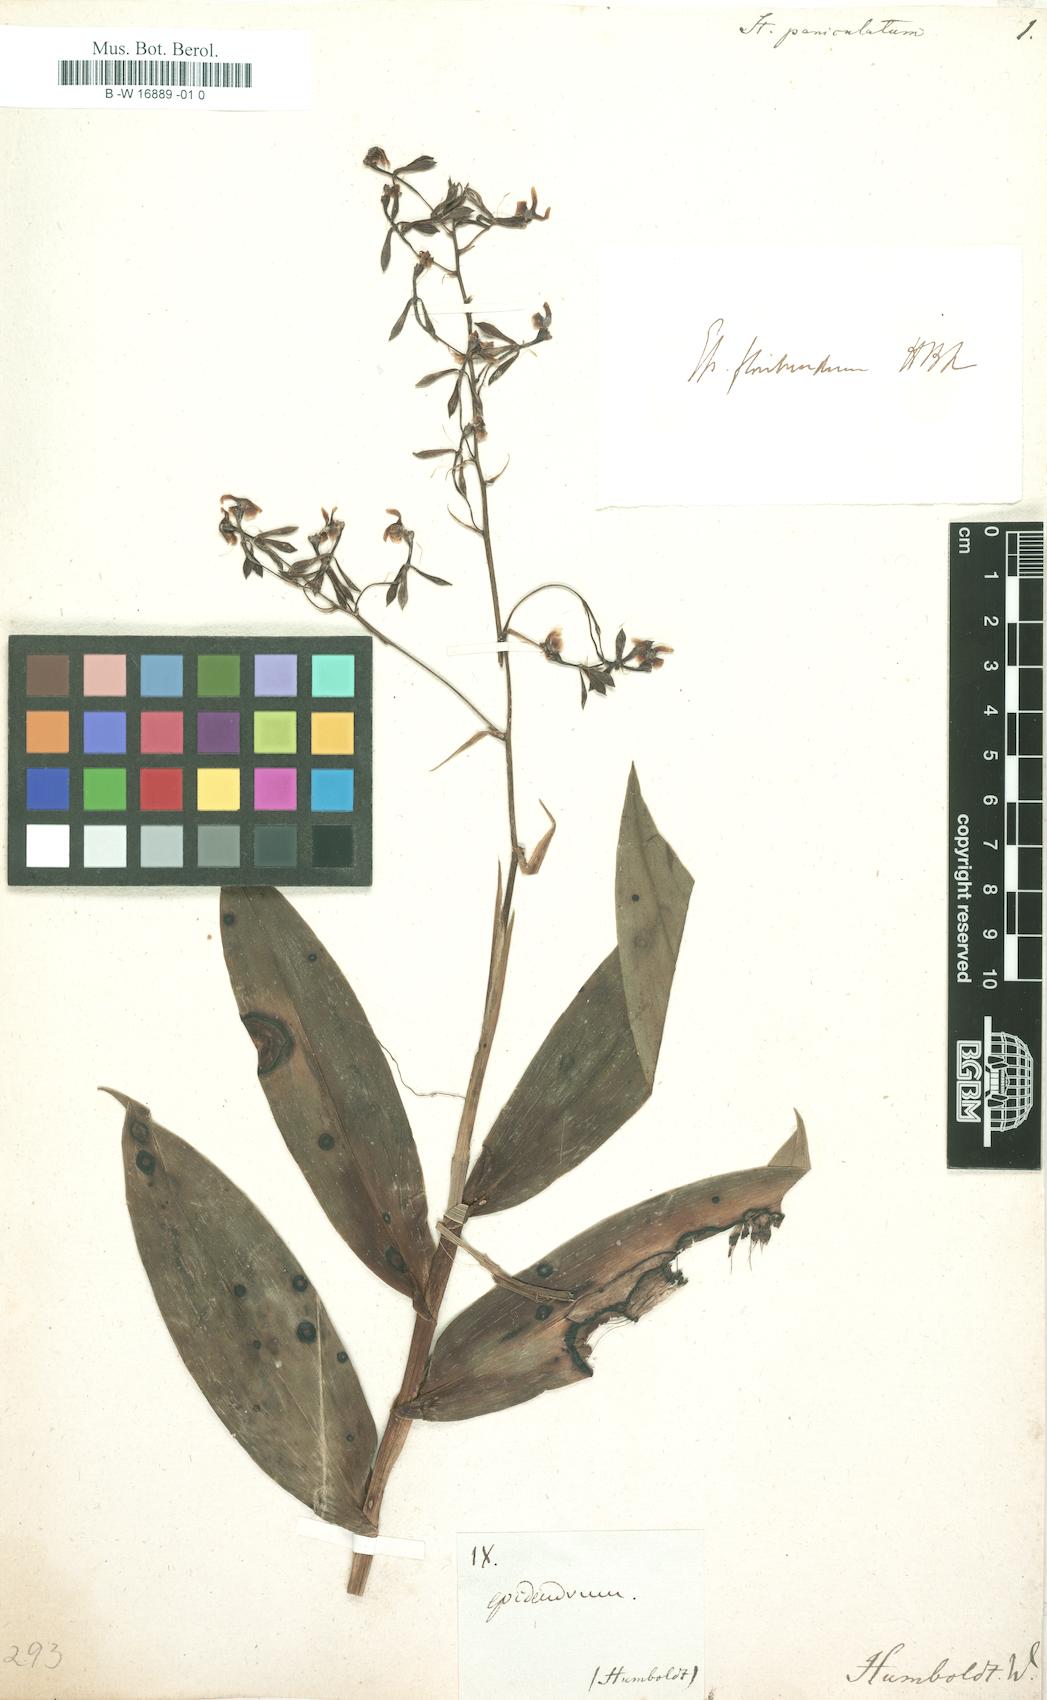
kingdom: Plantae
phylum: Tracheophyta
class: Liliopsida
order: Asparagales
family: Orchidaceae
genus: Calanthe
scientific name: Calanthe
